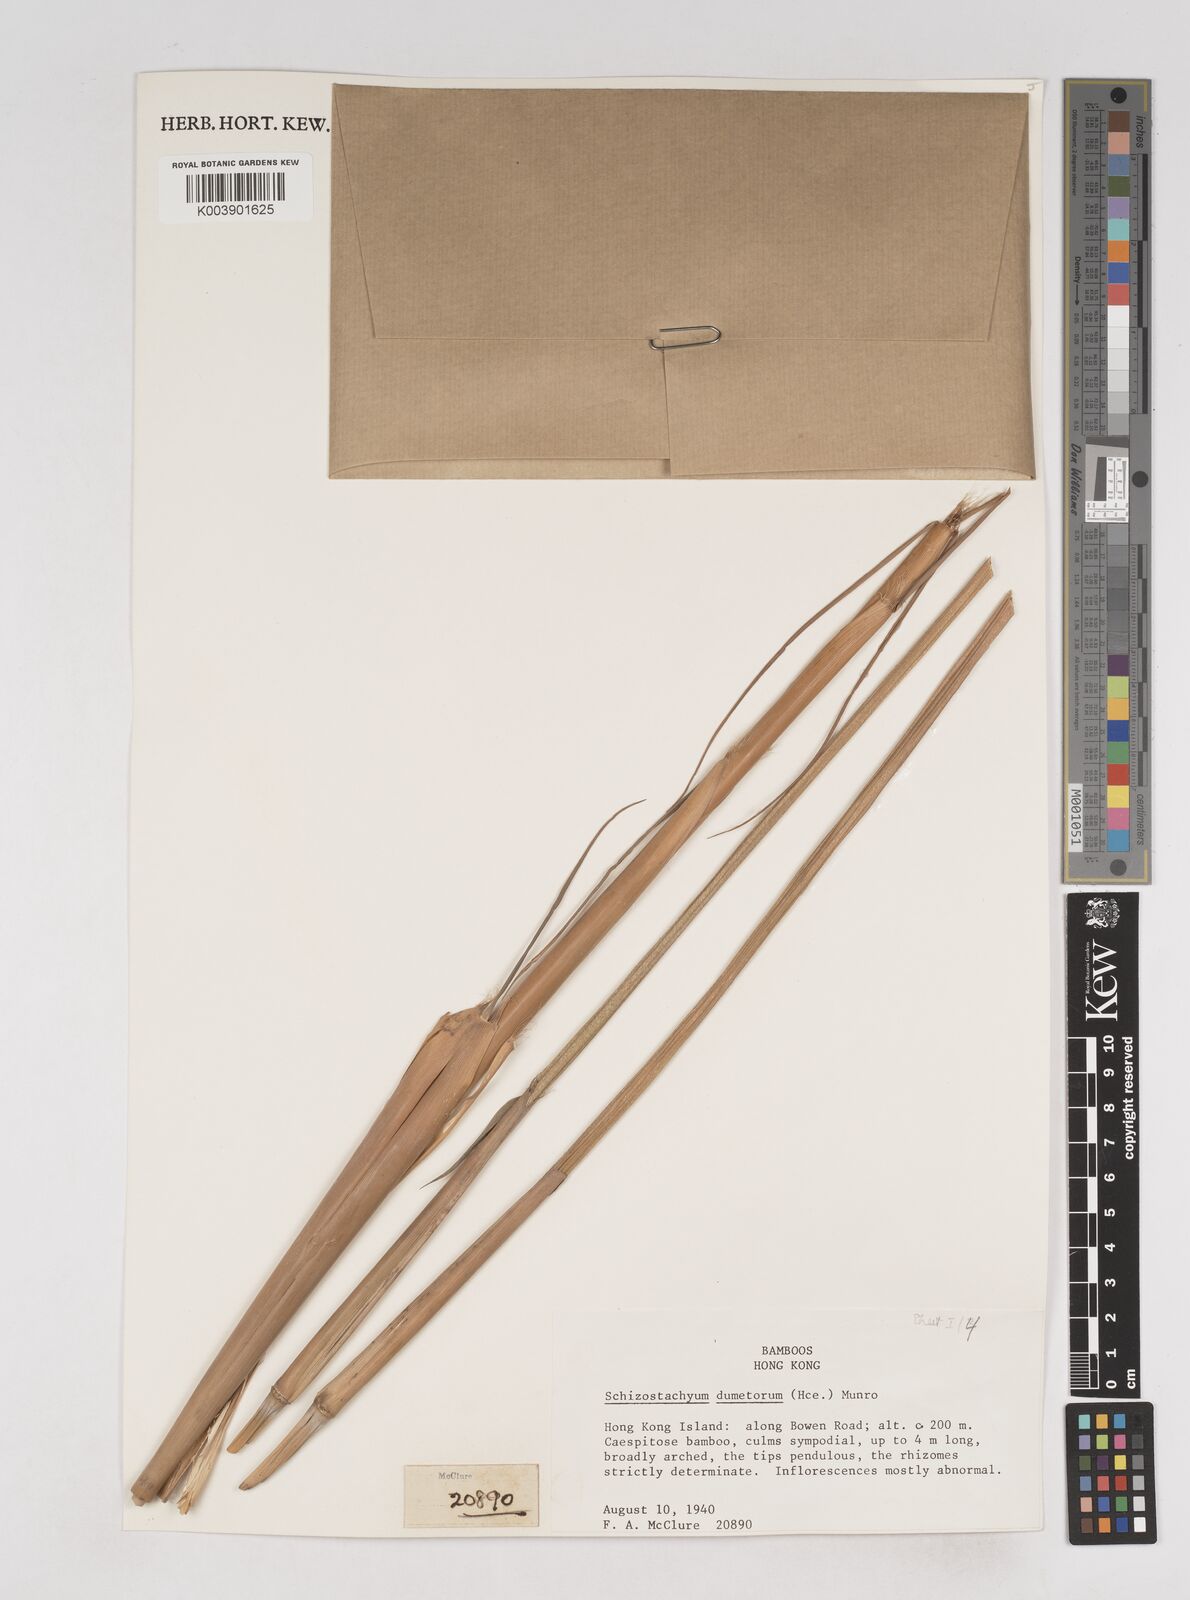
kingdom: Plantae
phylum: Tracheophyta
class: Liliopsida
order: Poales
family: Poaceae
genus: Schizostachyum
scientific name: Schizostachyum dumetorum
